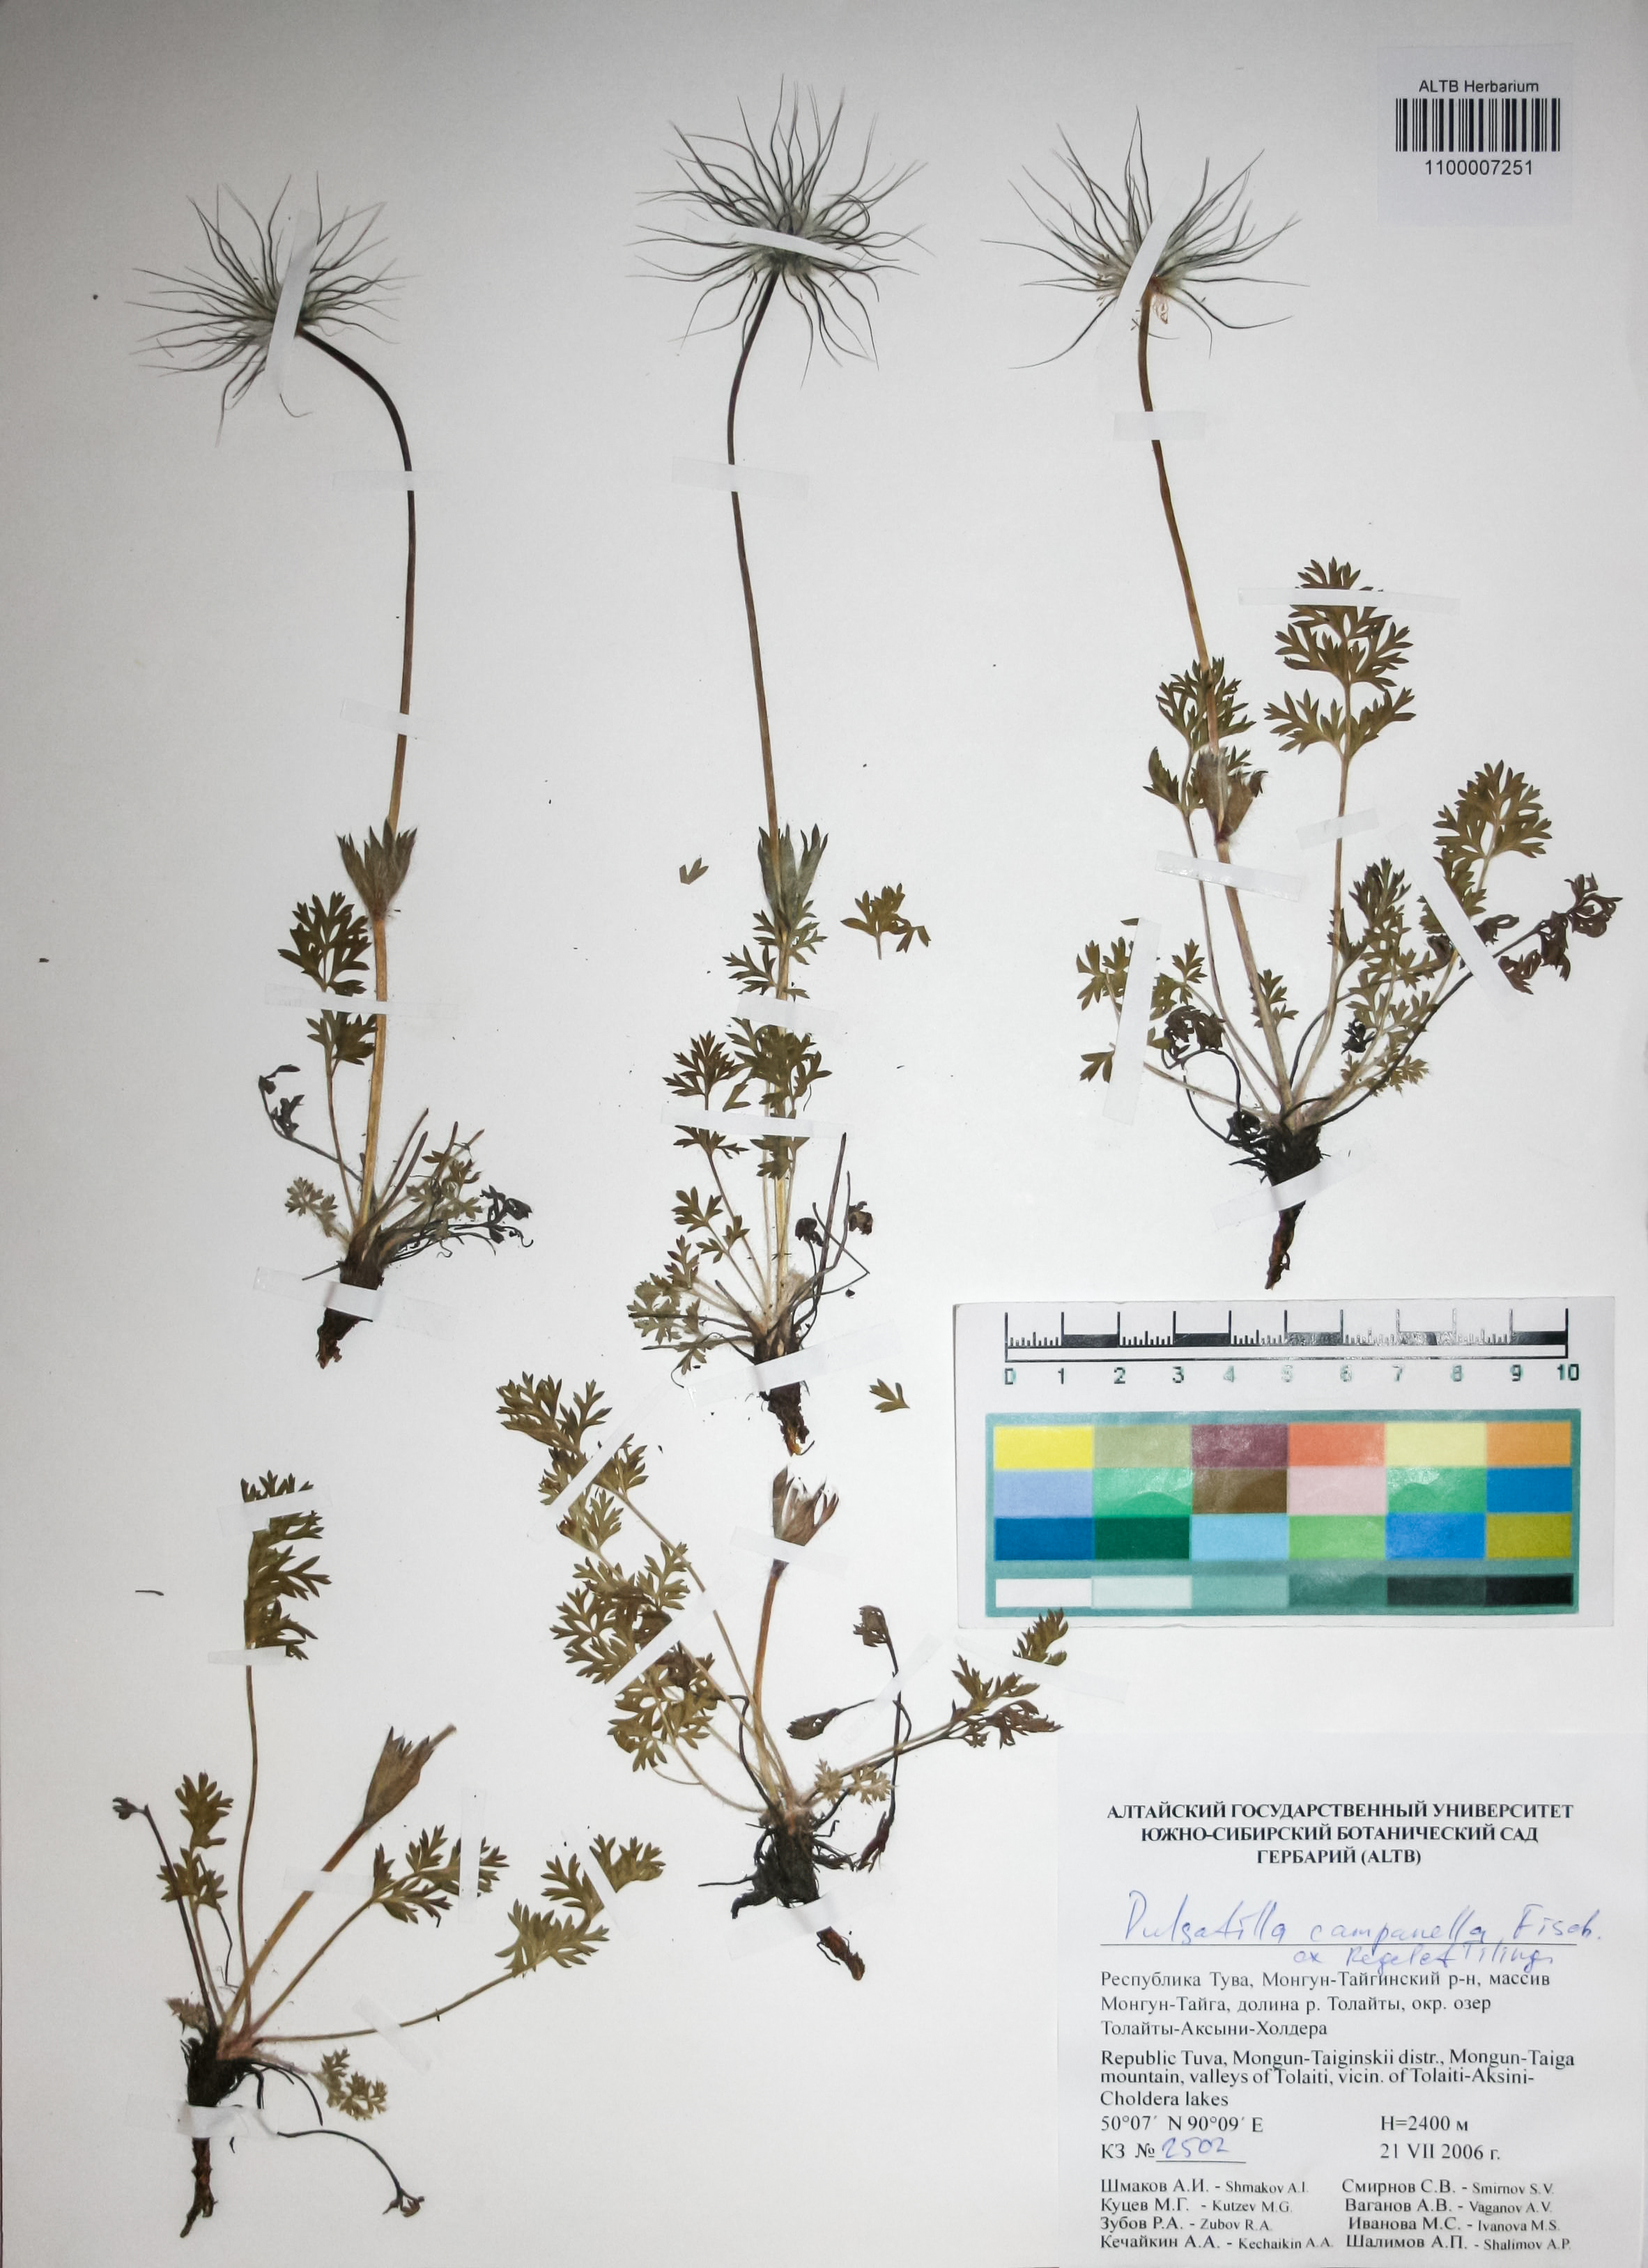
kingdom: Plantae
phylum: Tracheophyta
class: Magnoliopsida
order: Ranunculales
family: Ranunculaceae
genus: Pulsatilla
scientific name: Pulsatilla campanella
